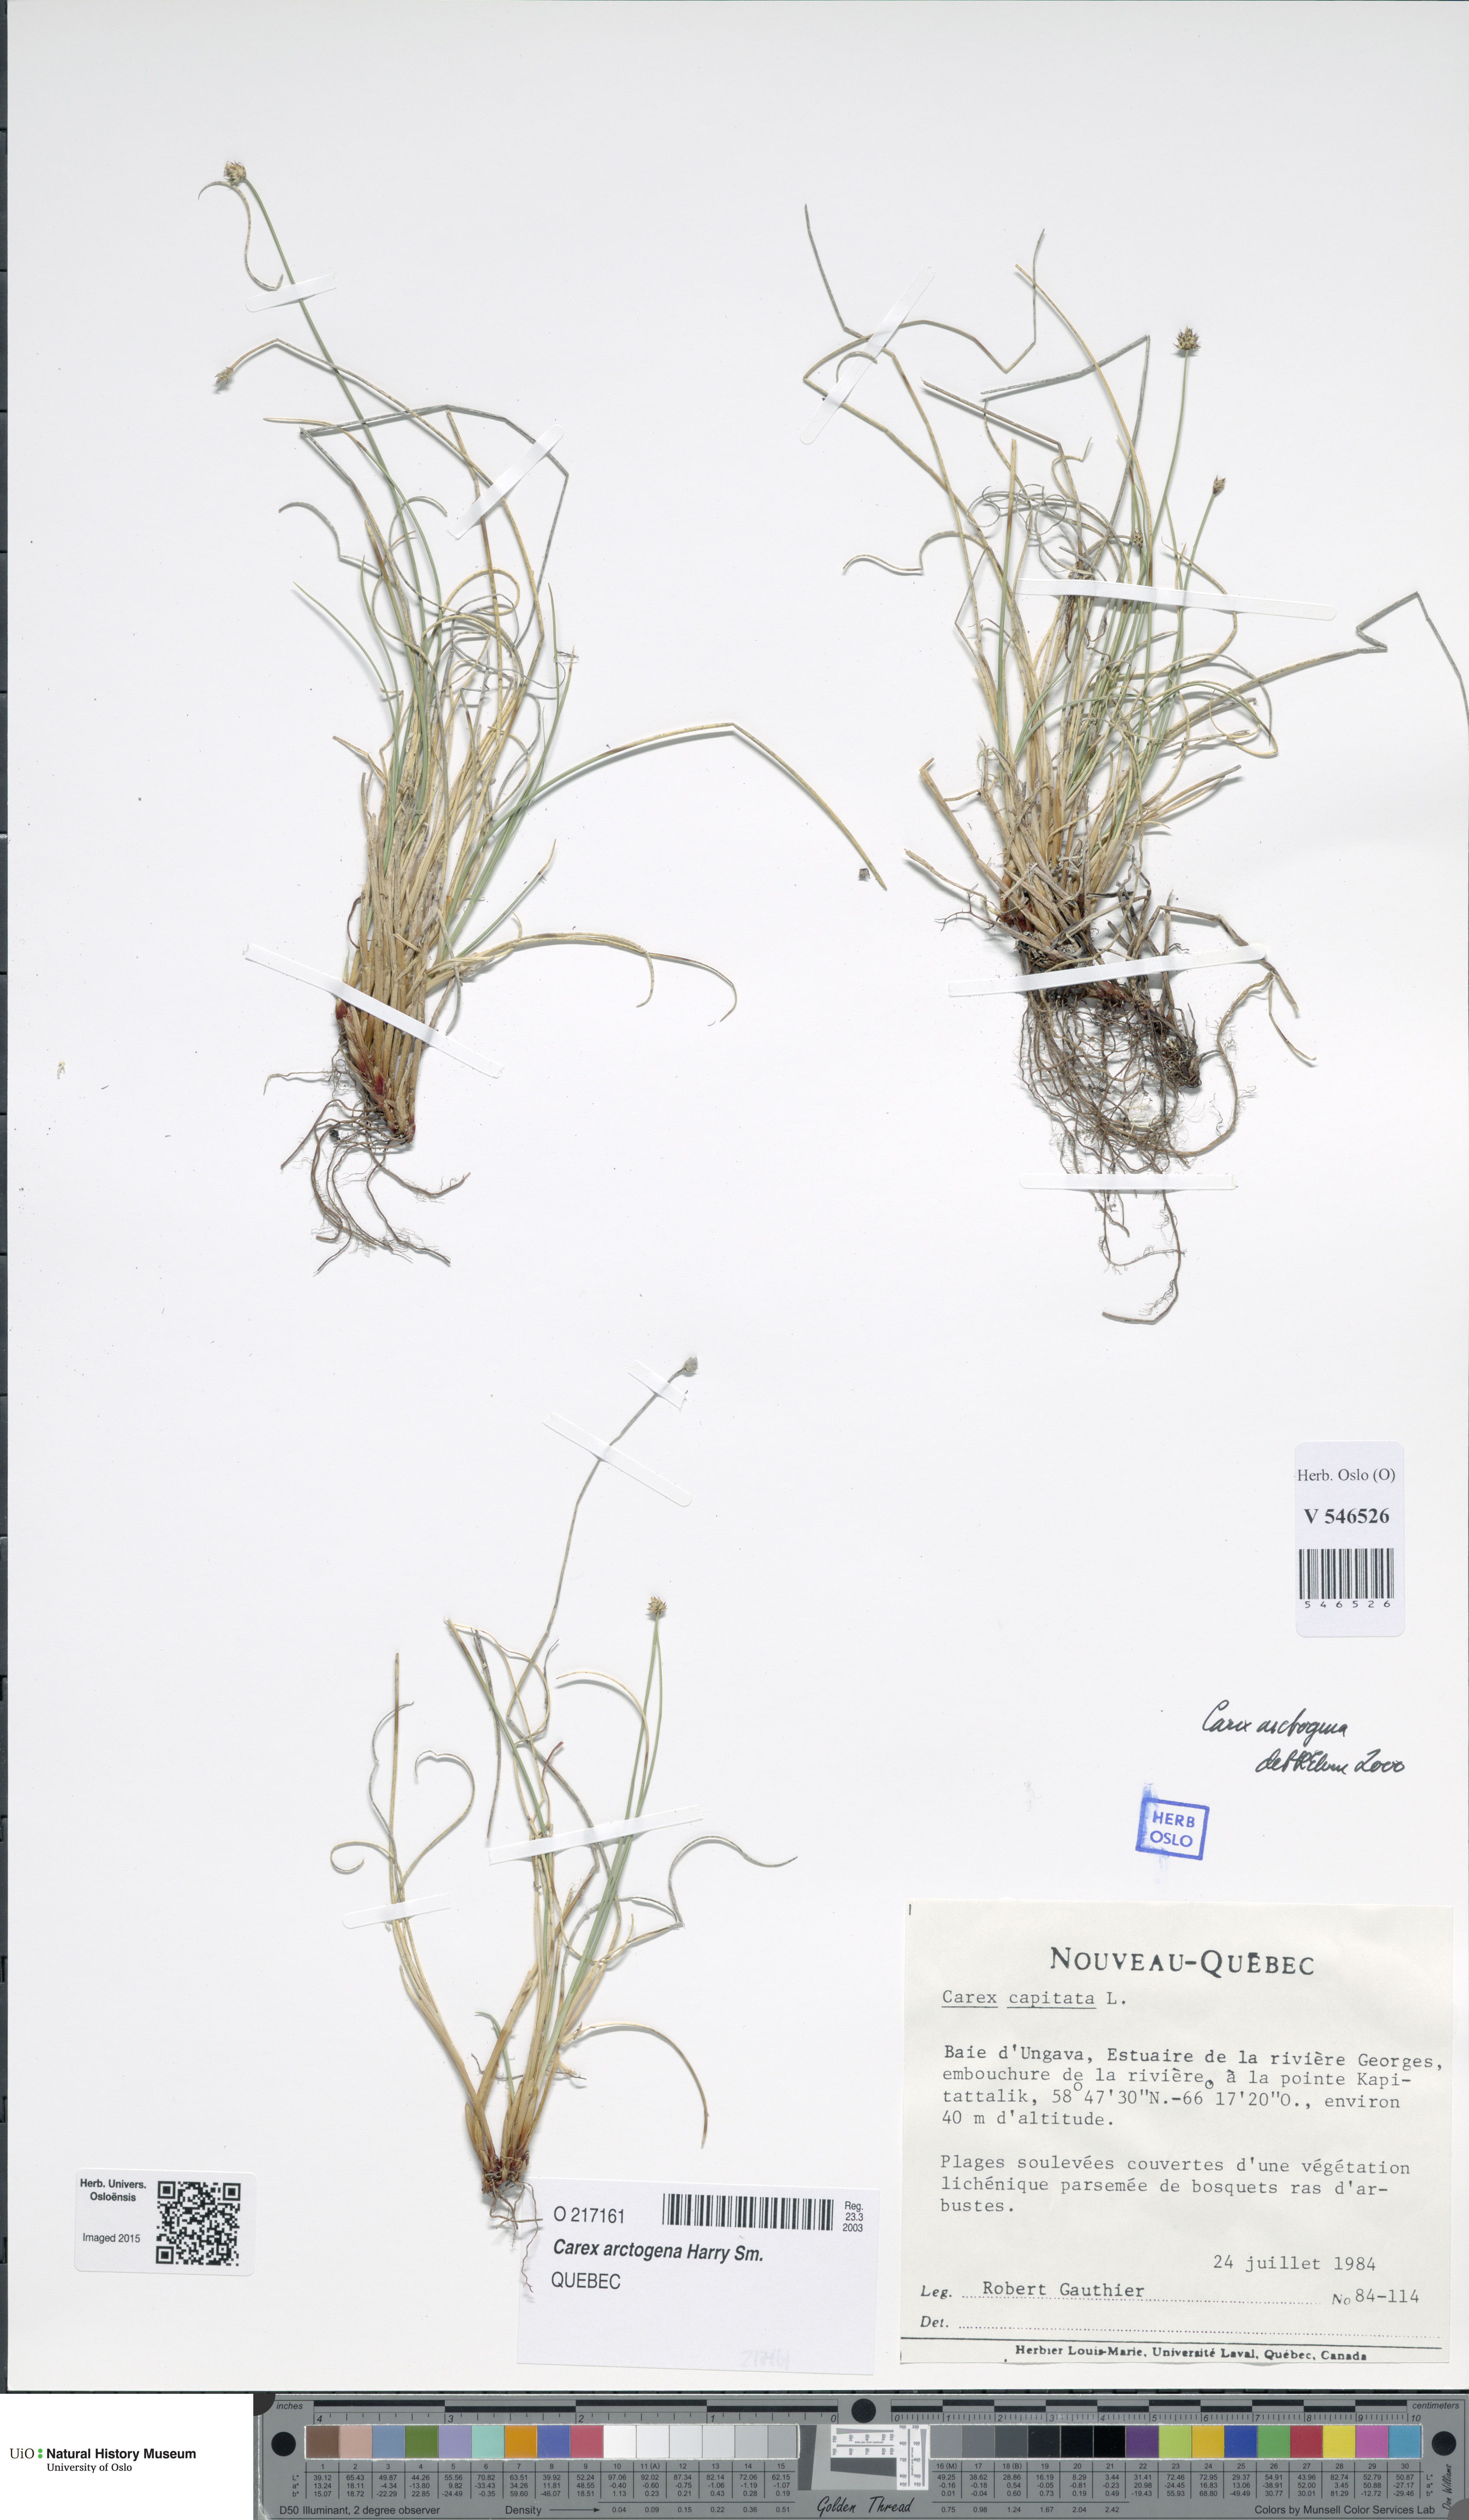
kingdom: Plantae
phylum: Tracheophyta
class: Liliopsida
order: Poales
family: Cyperaceae
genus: Carex
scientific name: Carex arctogena
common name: Black sedge
